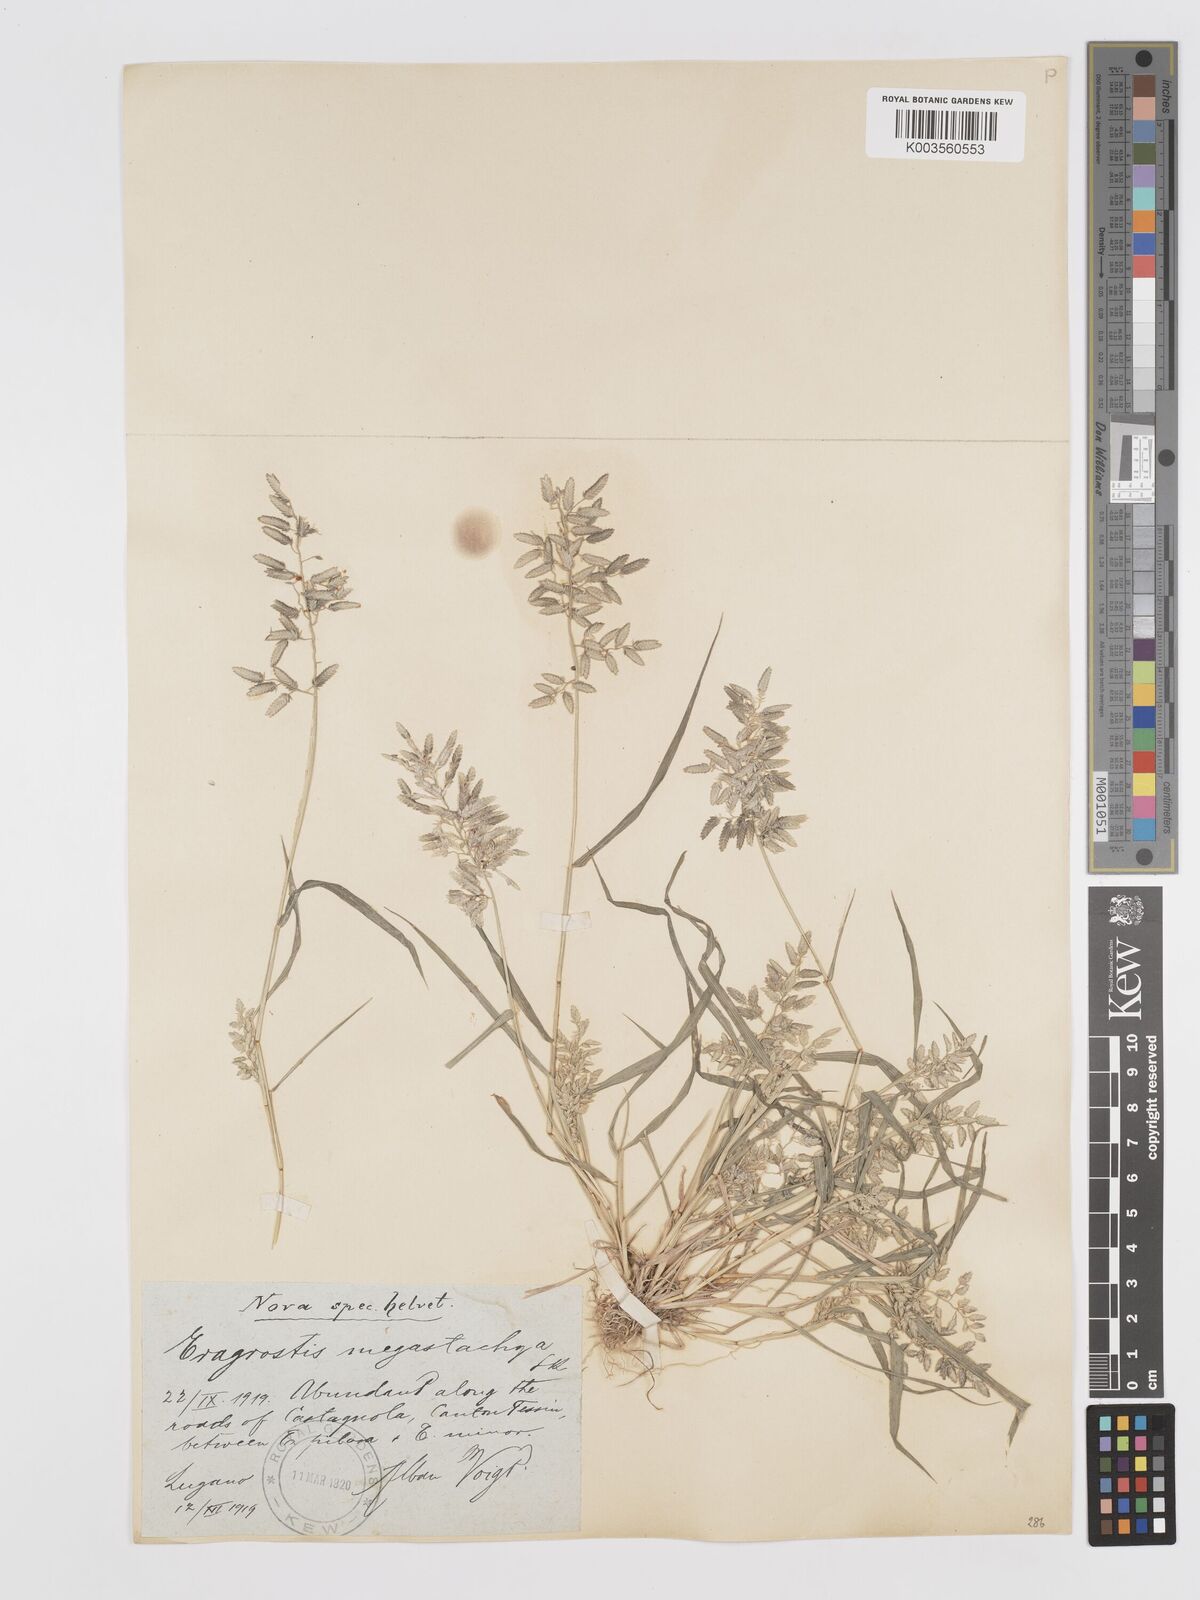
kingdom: Plantae
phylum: Tracheophyta
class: Liliopsida
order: Poales
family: Poaceae
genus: Eragrostis
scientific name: Eragrostis cilianensis
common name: Stinkgrass
